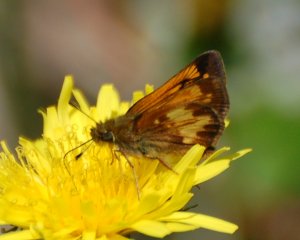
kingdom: Animalia
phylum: Arthropoda
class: Insecta
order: Lepidoptera
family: Hesperiidae
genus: Lon
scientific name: Lon hobomok
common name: Hobomok Skipper
